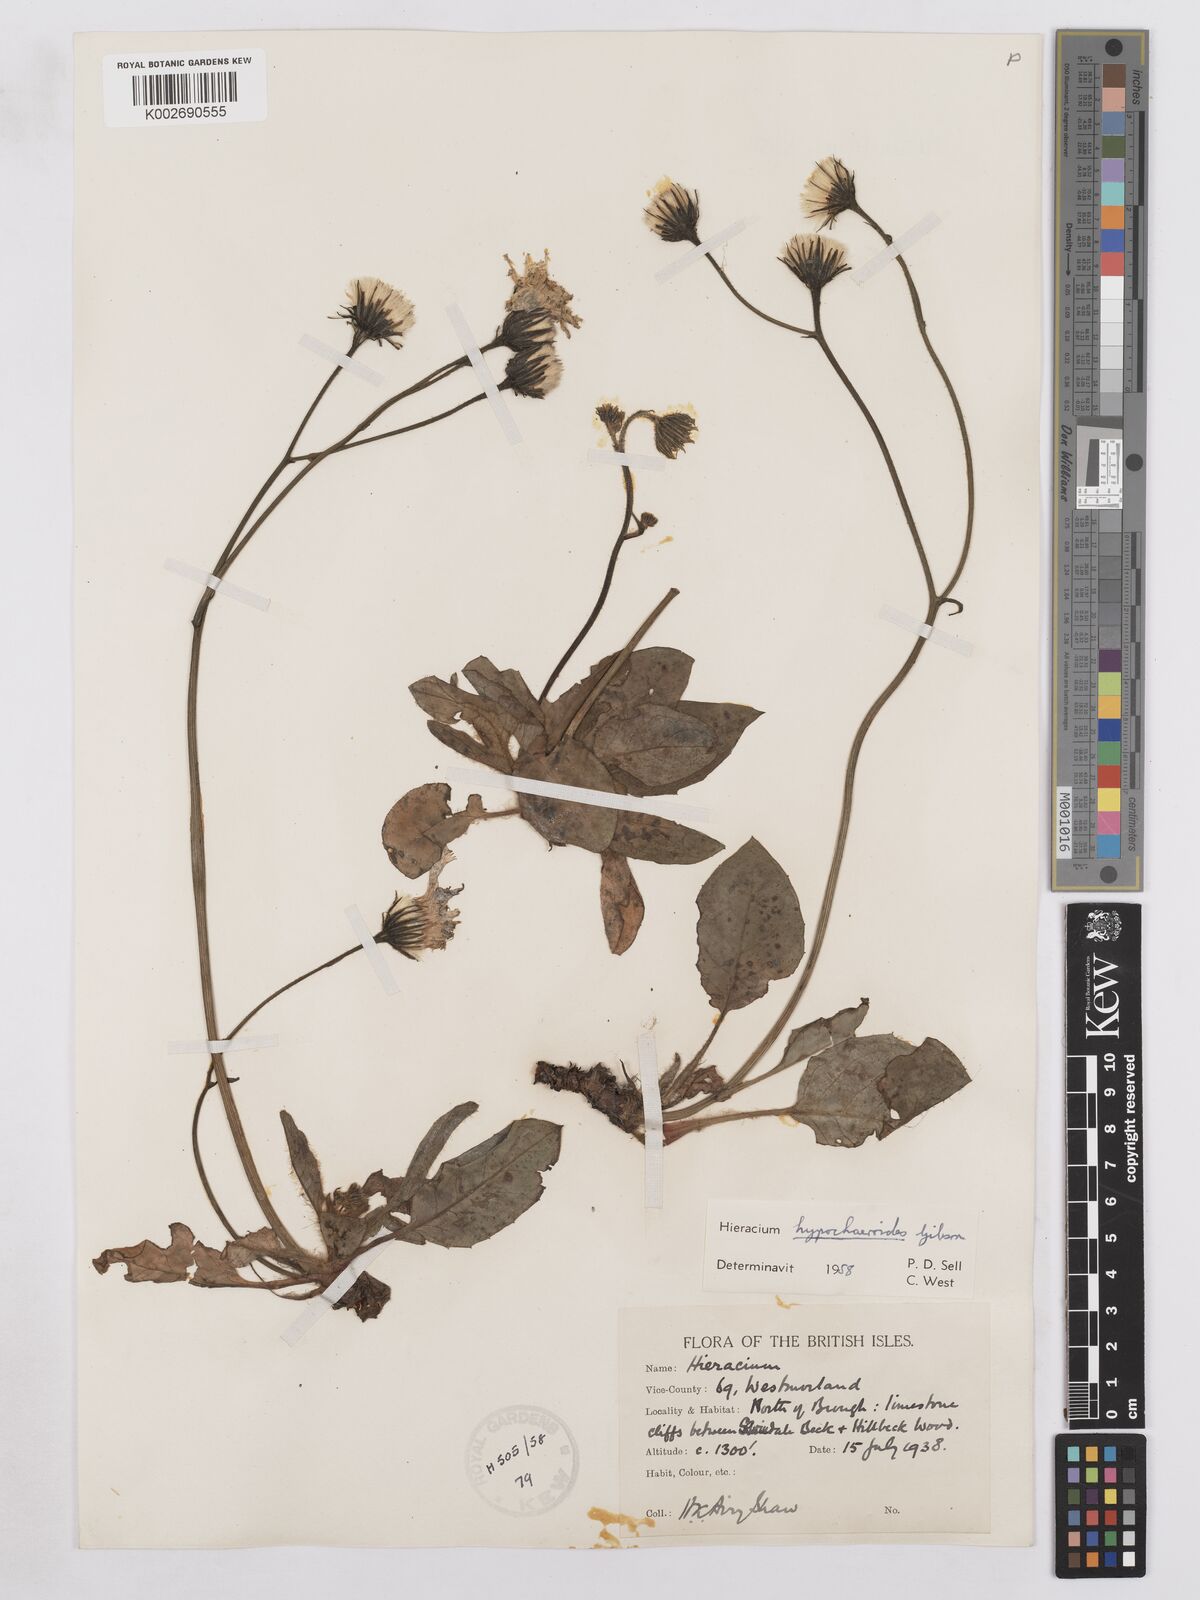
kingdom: Plantae
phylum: Tracheophyta
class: Magnoliopsida
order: Asterales
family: Asteraceae
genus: Hieracium
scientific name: Hieracium stictum
